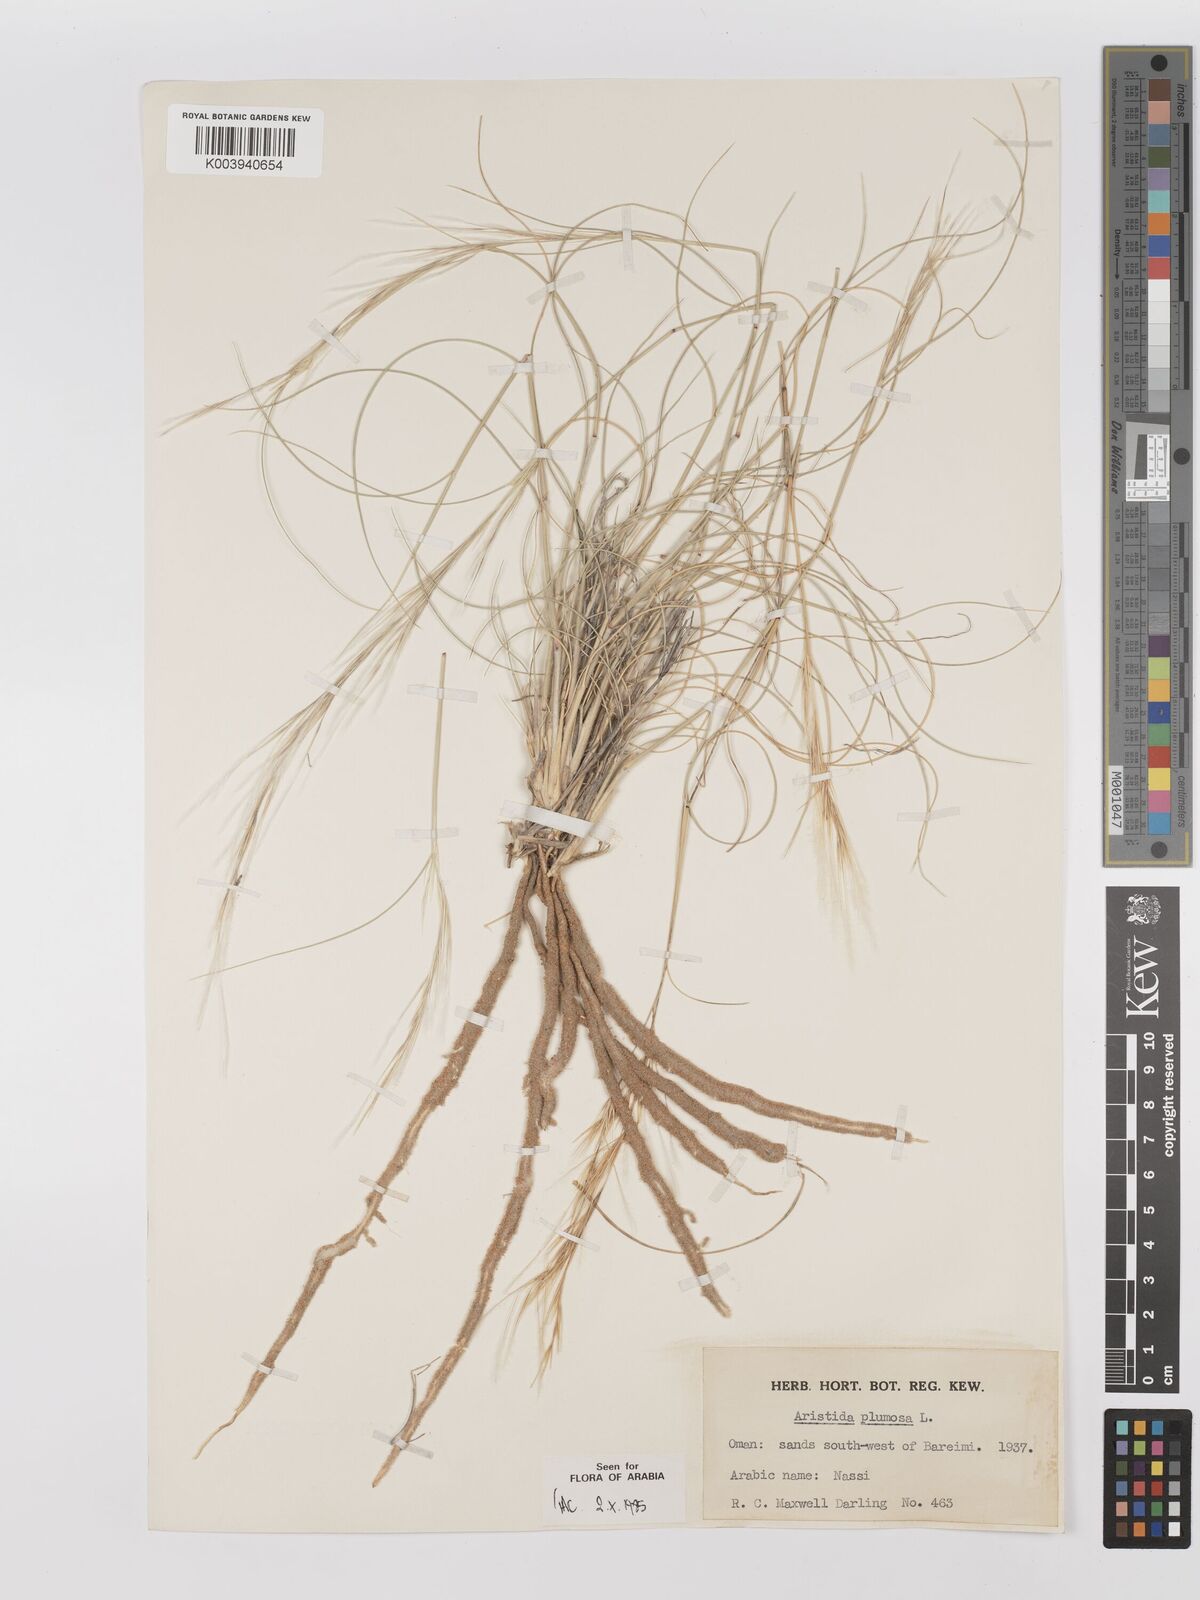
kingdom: Plantae
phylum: Tracheophyta
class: Liliopsida
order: Poales
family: Poaceae
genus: Stipagrostis
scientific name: Stipagrostis plumosa
